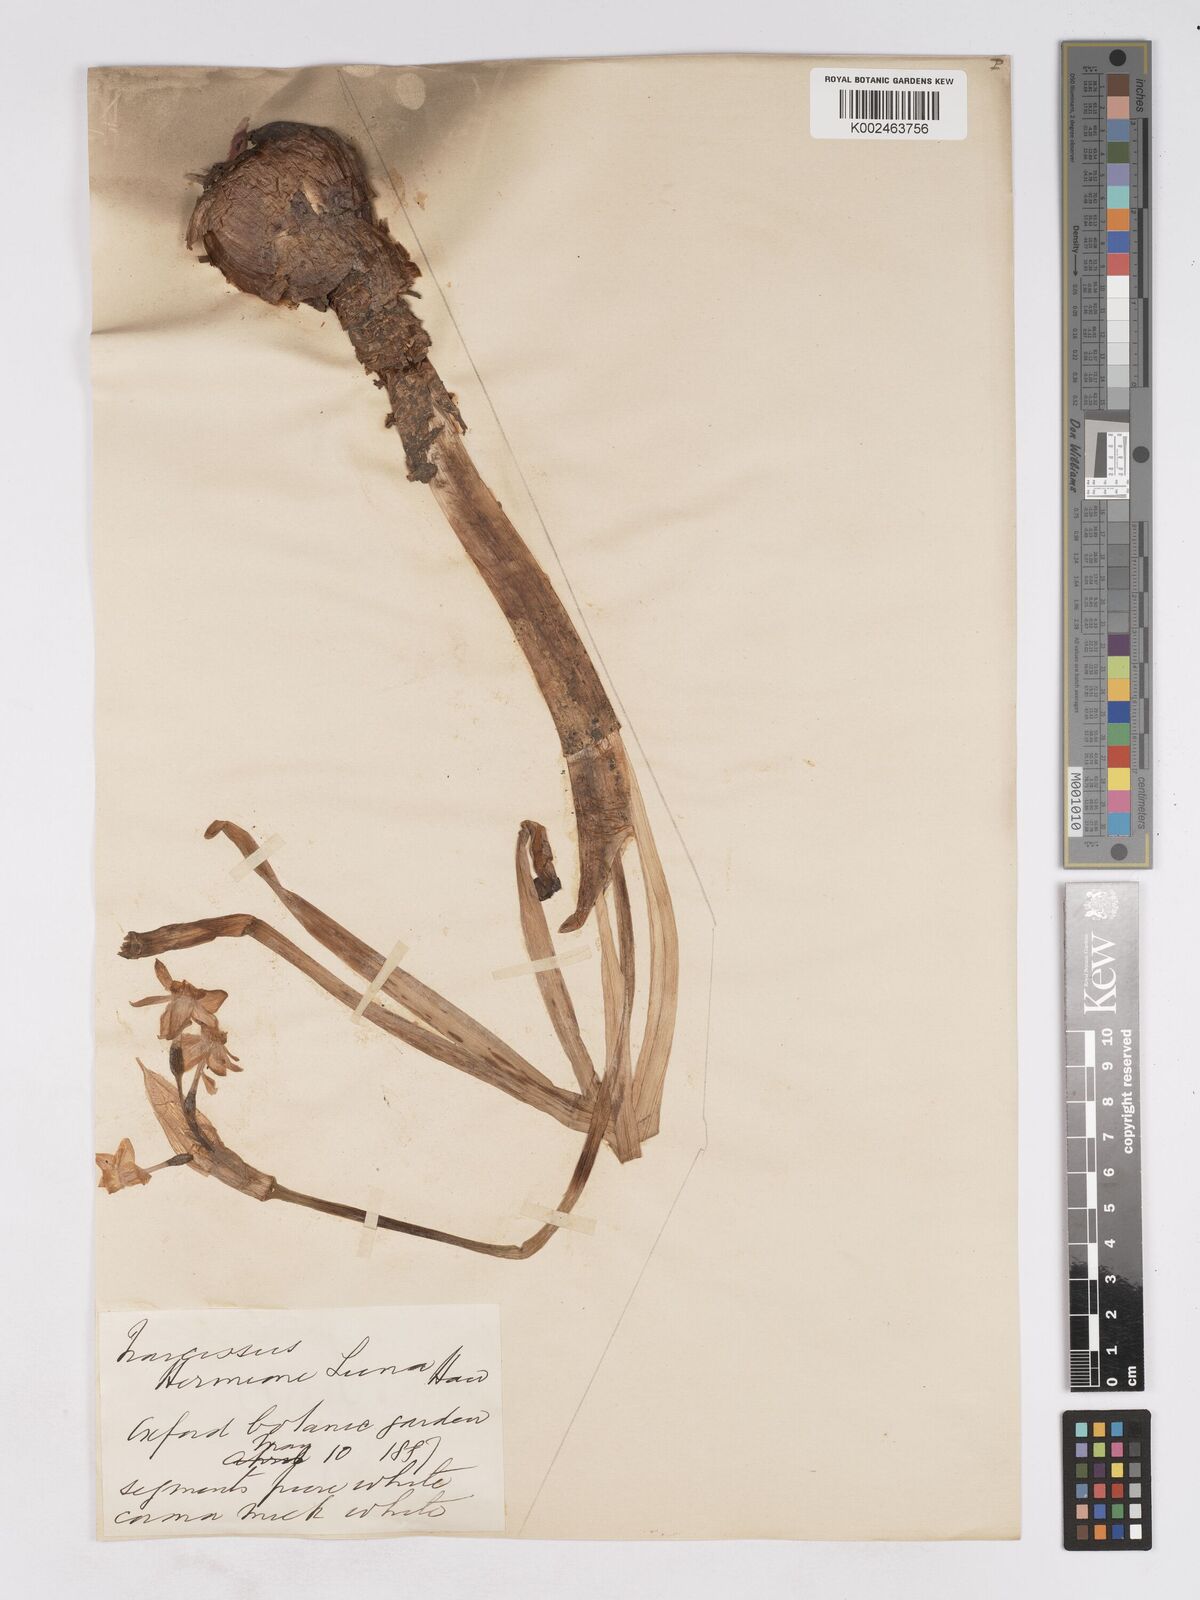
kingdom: Plantae
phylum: Tracheophyta
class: Liliopsida
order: Asparagales
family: Amaryllidaceae
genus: Narcissus
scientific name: Narcissus
